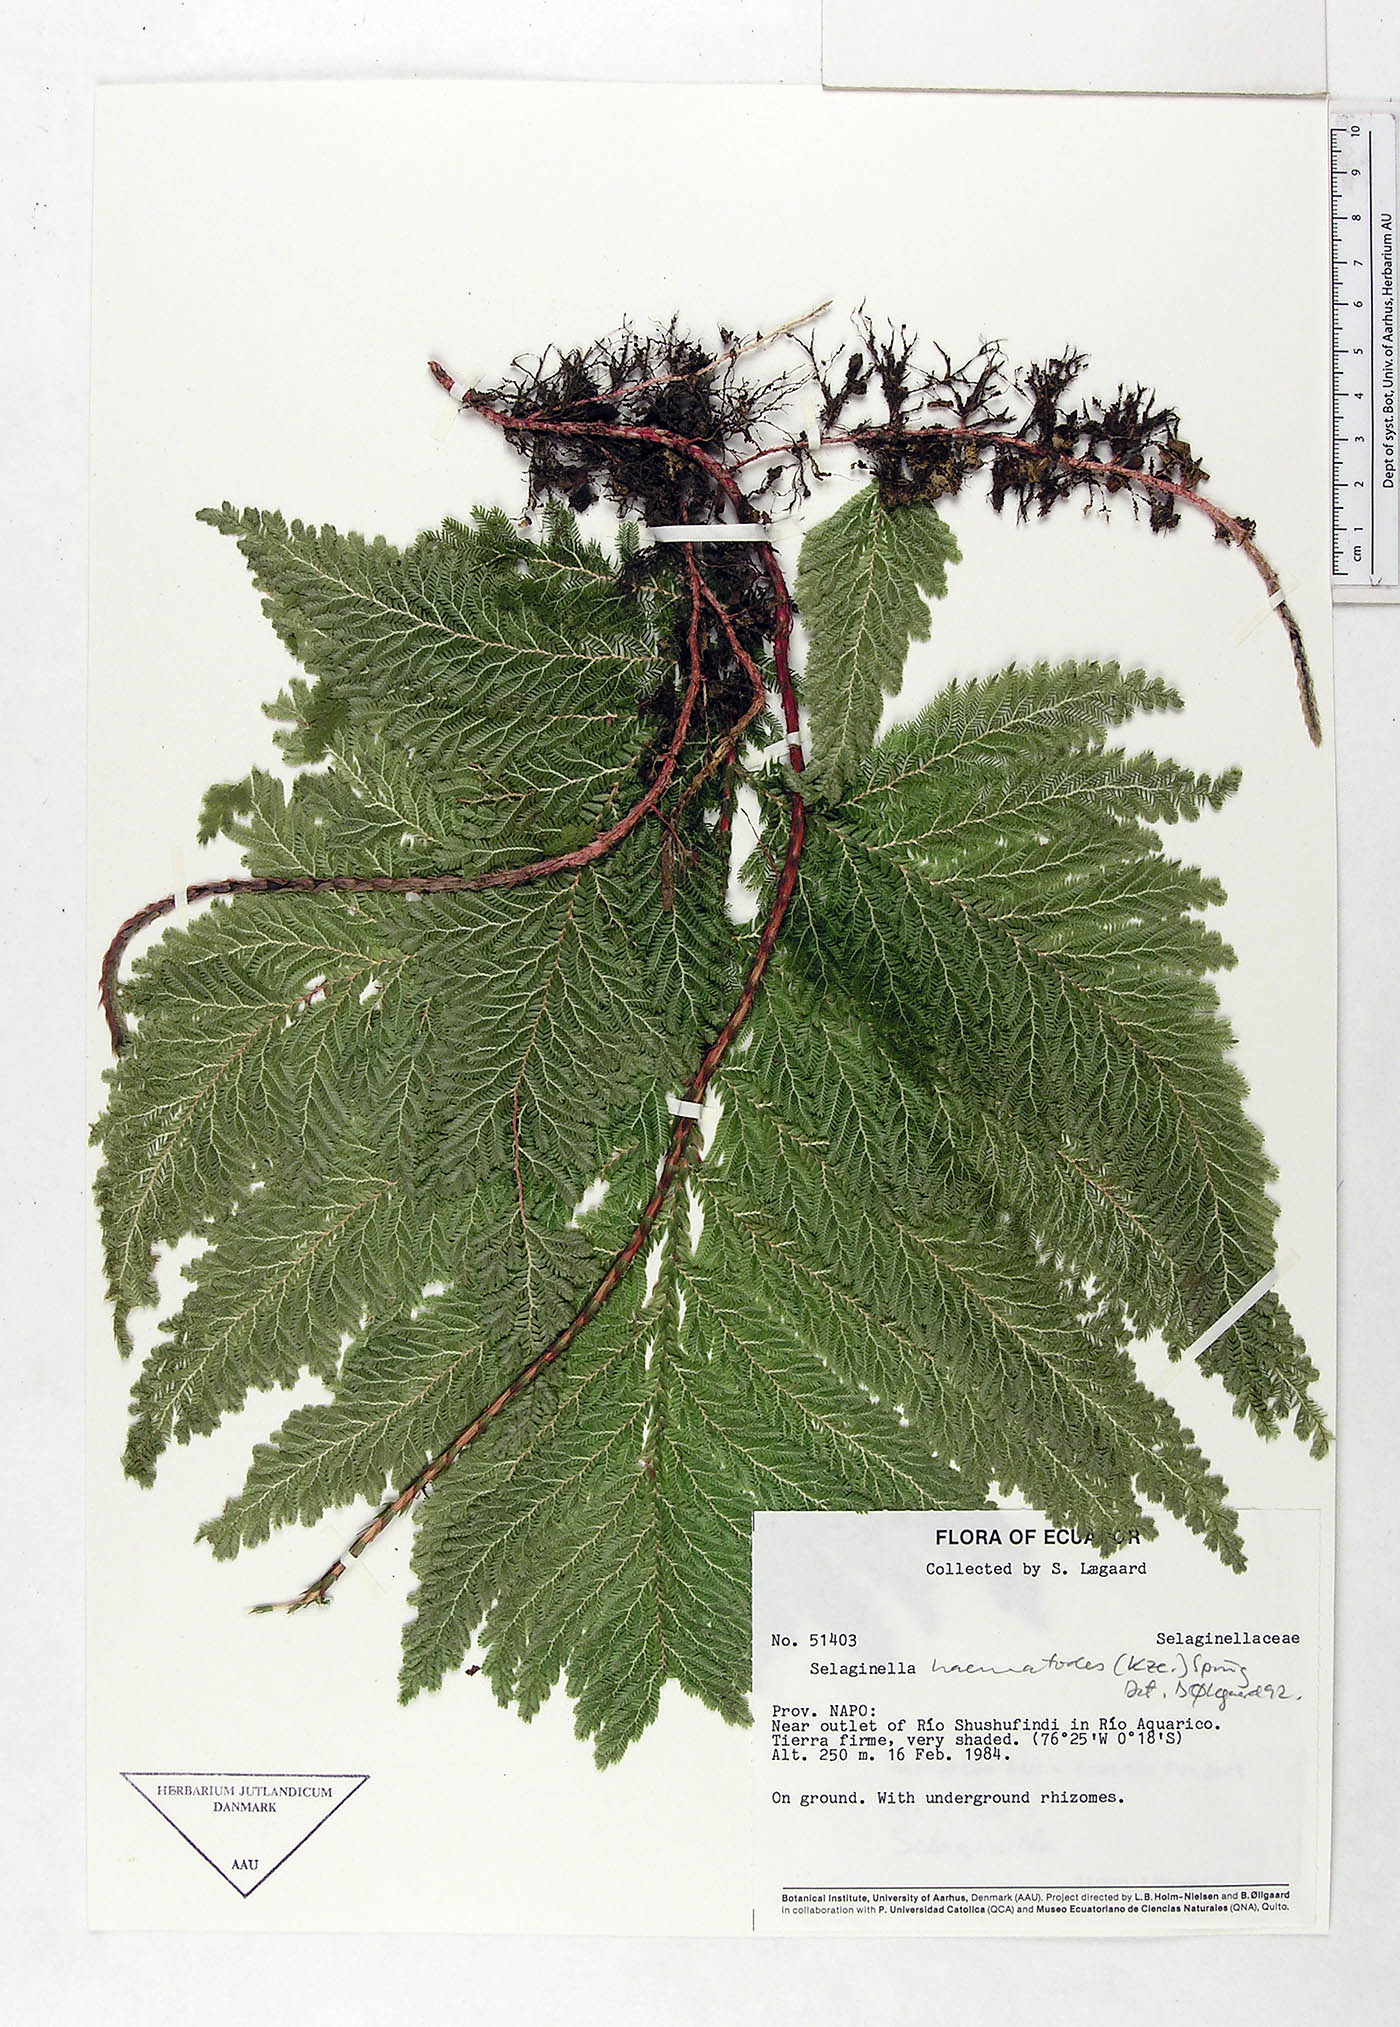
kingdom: Plantae
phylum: Tracheophyta
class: Lycopodiopsida
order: Selaginellales
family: Selaginellaceae
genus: Selaginella
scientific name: Selaginella haematodes
